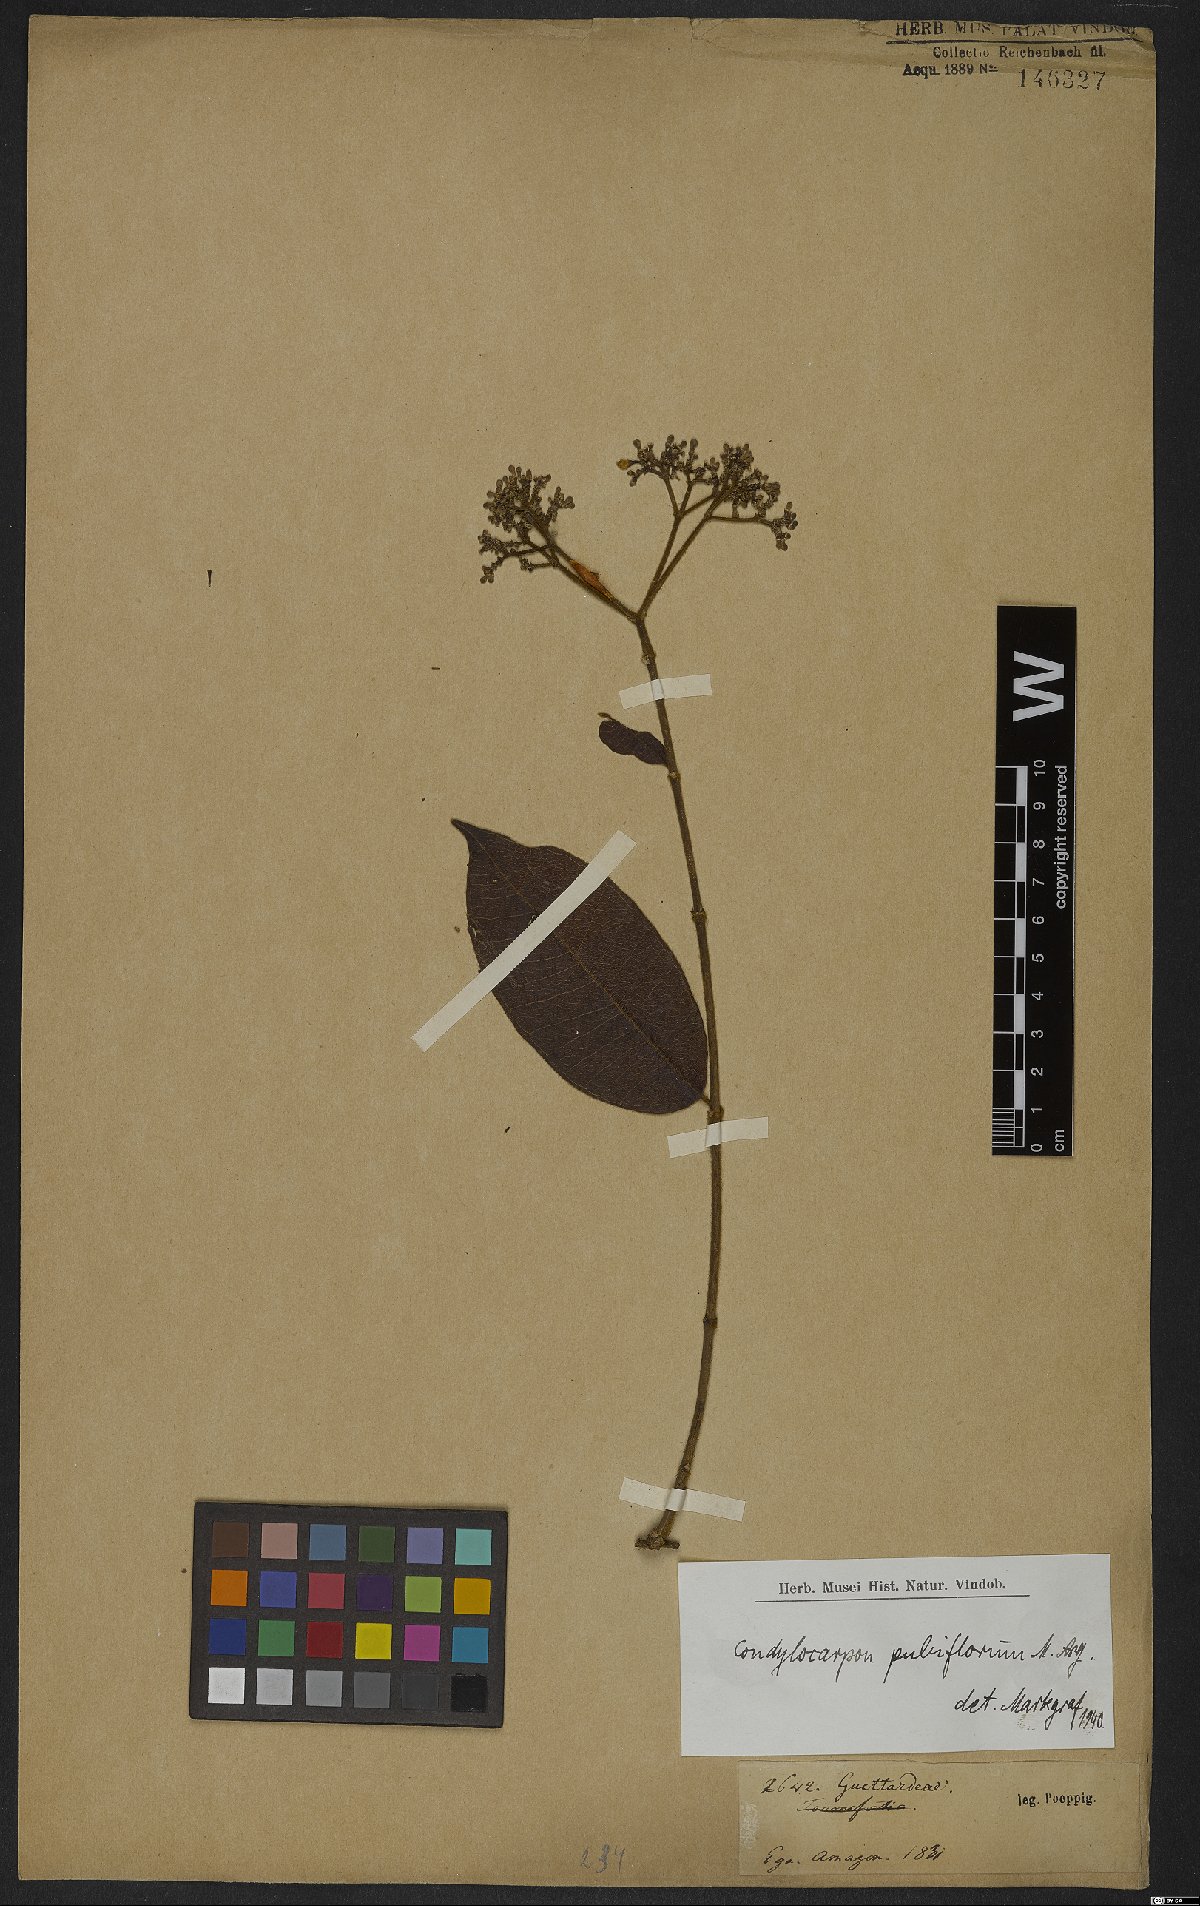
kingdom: Plantae
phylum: Tracheophyta
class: Magnoliopsida
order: Gentianales
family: Apocynaceae
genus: Condylocarpon
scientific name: Condylocarpon pubiflorum
